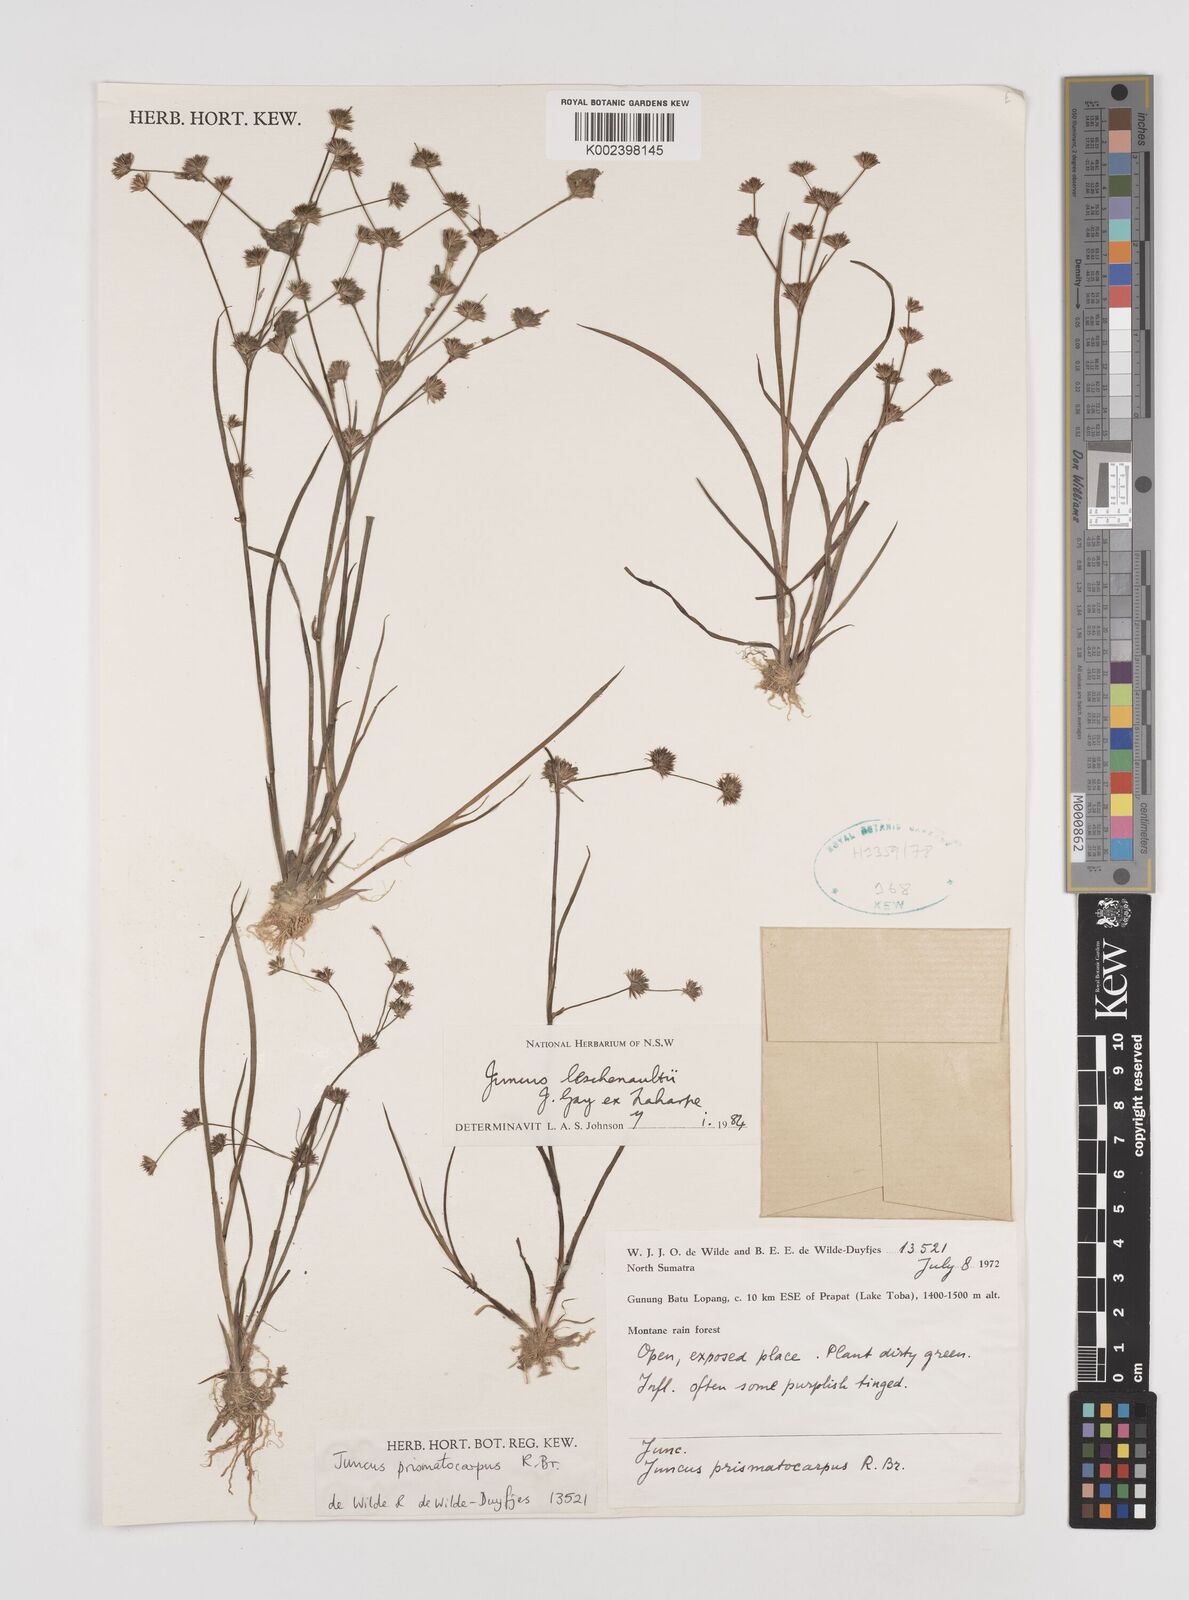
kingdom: Plantae
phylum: Tracheophyta
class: Liliopsida
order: Poales
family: Juncaceae
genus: Juncus
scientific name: Juncus prismatocarpus
